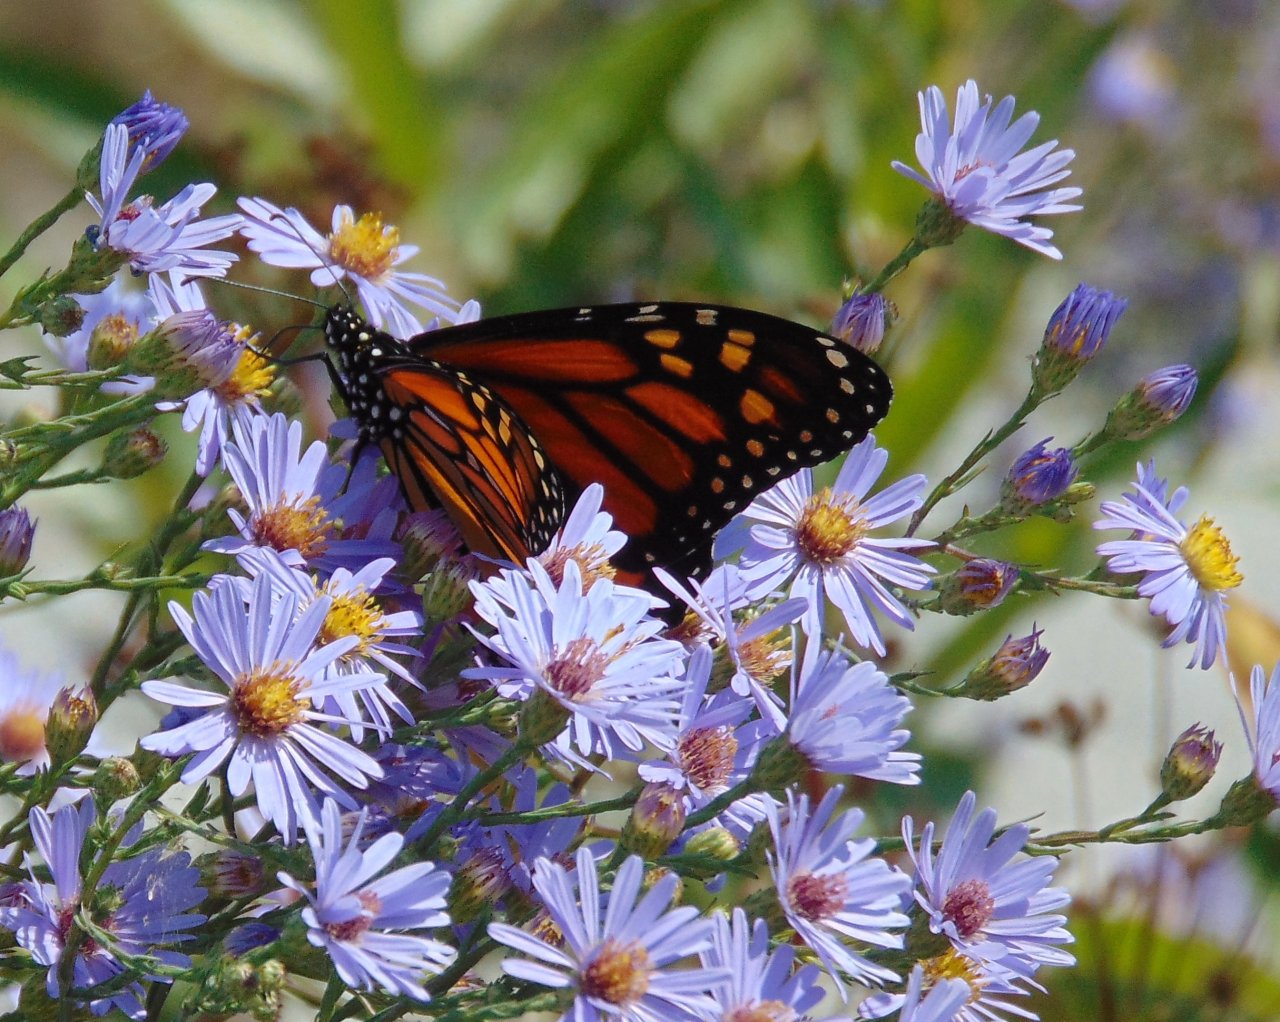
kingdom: Animalia
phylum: Arthropoda
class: Insecta
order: Lepidoptera
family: Nymphalidae
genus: Danaus
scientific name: Danaus plexippus
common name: Monarch
